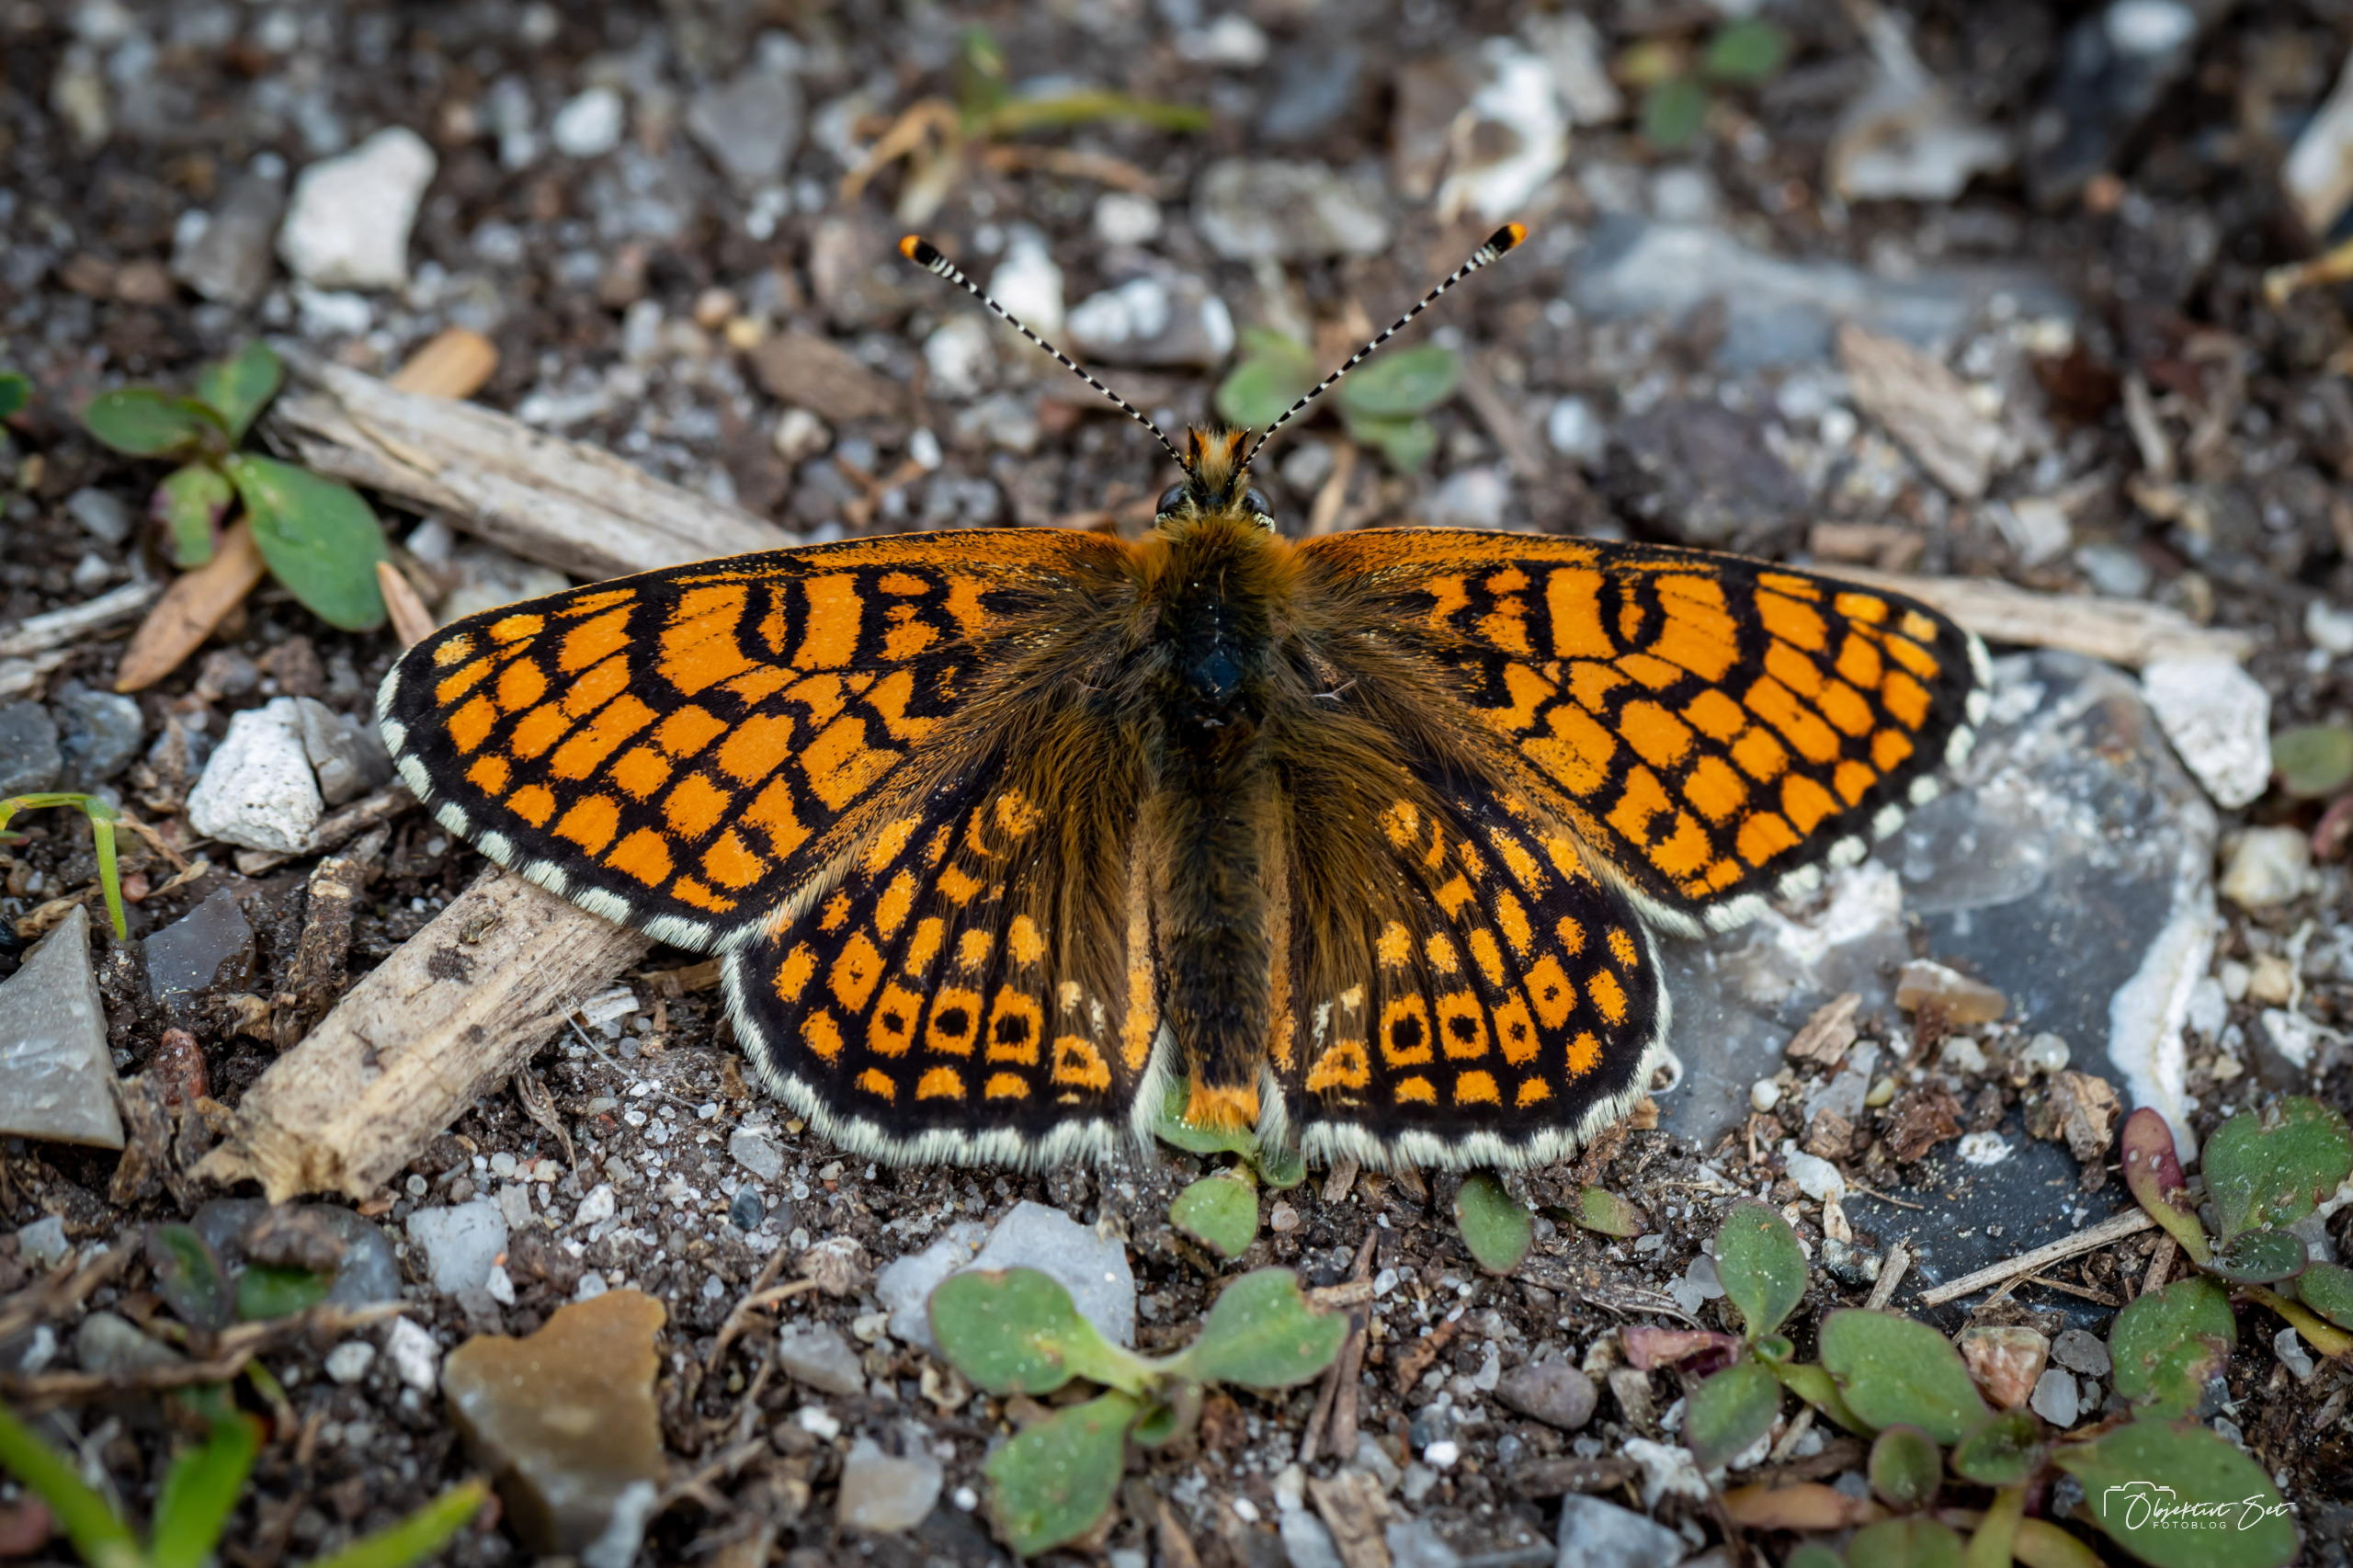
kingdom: Animalia
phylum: Arthropoda
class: Insecta
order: Lepidoptera
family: Nymphalidae
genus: Melitaea
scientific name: Melitaea cinxia
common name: Okkergul pletvinge
